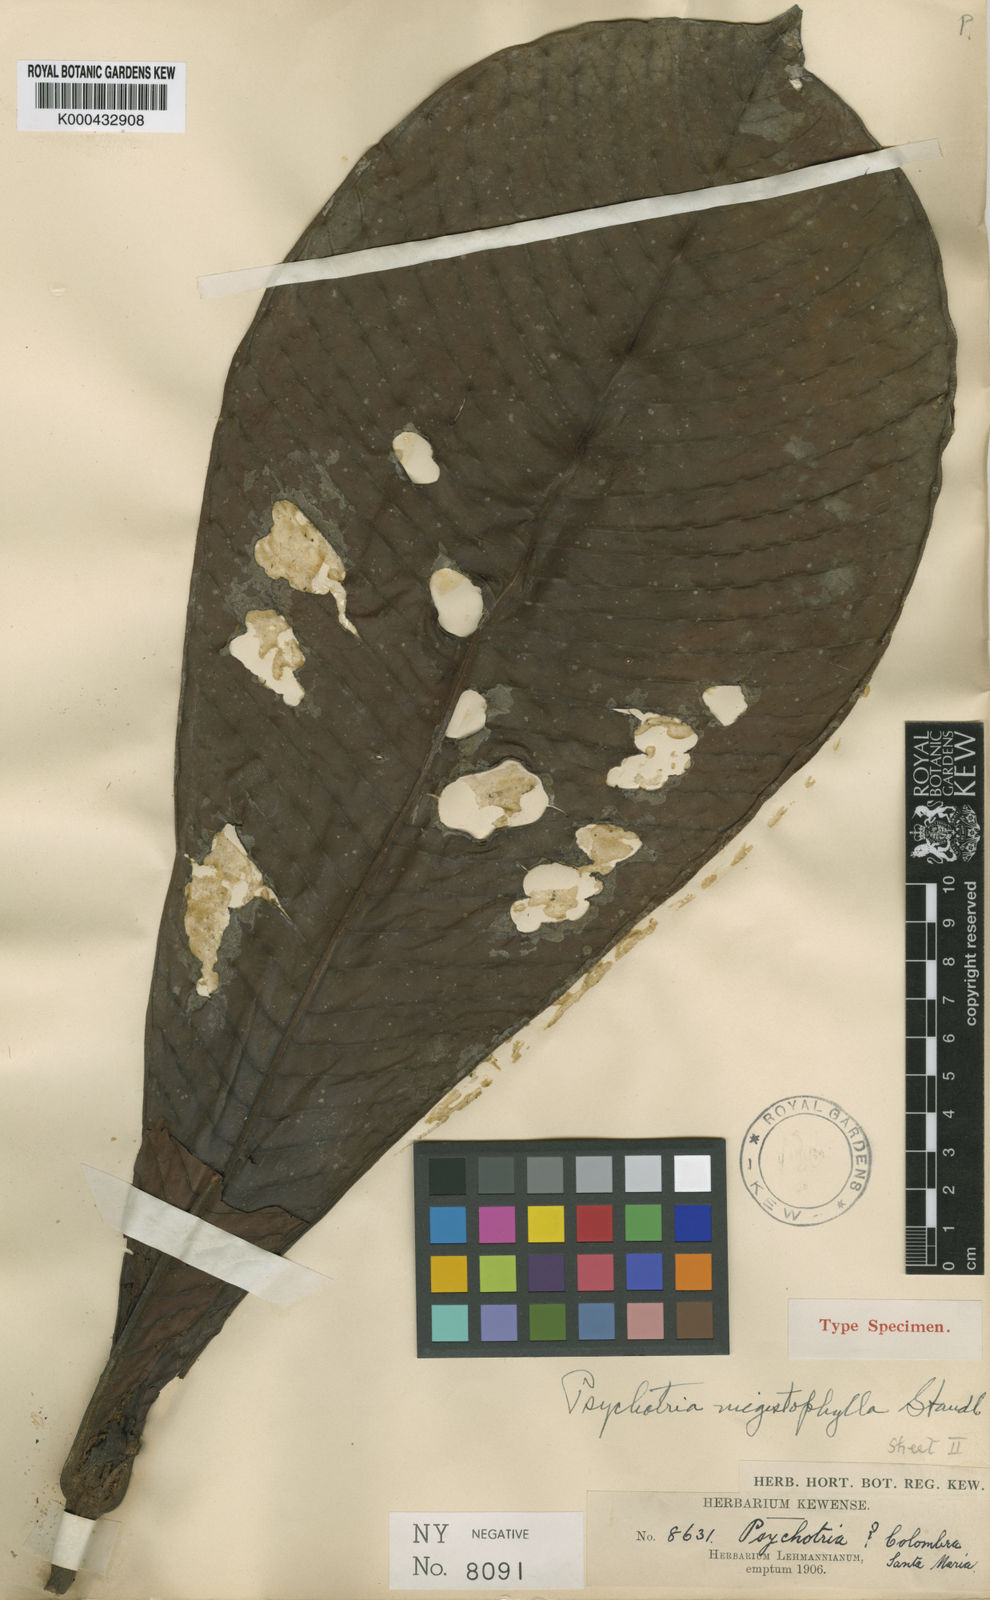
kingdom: Plantae
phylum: Tracheophyta
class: Magnoliopsida
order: Gentianales
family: Rubiaceae
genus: Psychotria
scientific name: Psychotria megistophylla
